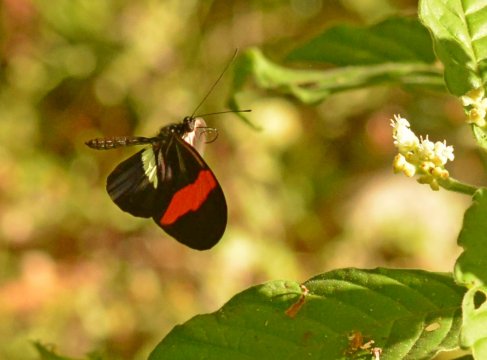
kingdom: Animalia
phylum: Arthropoda
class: Insecta
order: Lepidoptera
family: Nymphalidae
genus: Heliconius
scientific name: Heliconius erato
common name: Erato Heliconian
